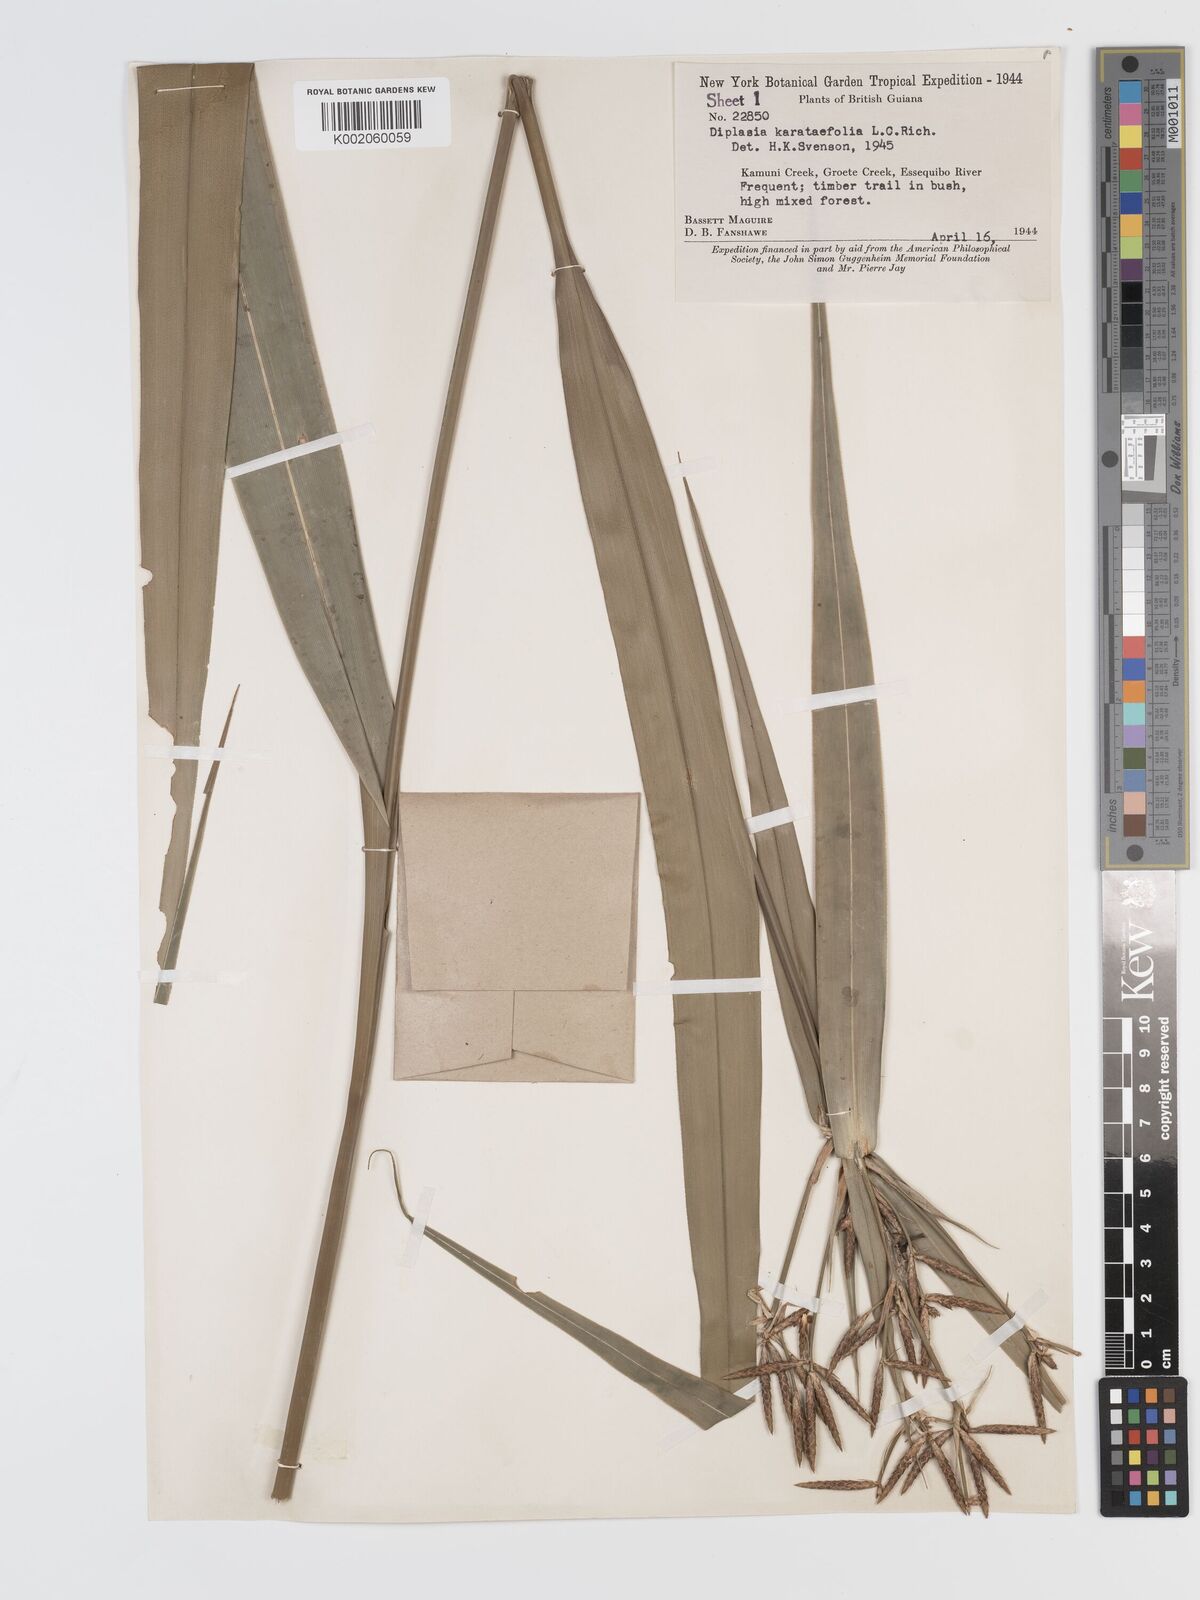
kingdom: Plantae
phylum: Tracheophyta
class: Liliopsida
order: Poales
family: Cyperaceae
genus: Diplasia
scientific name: Diplasia karatifolia
